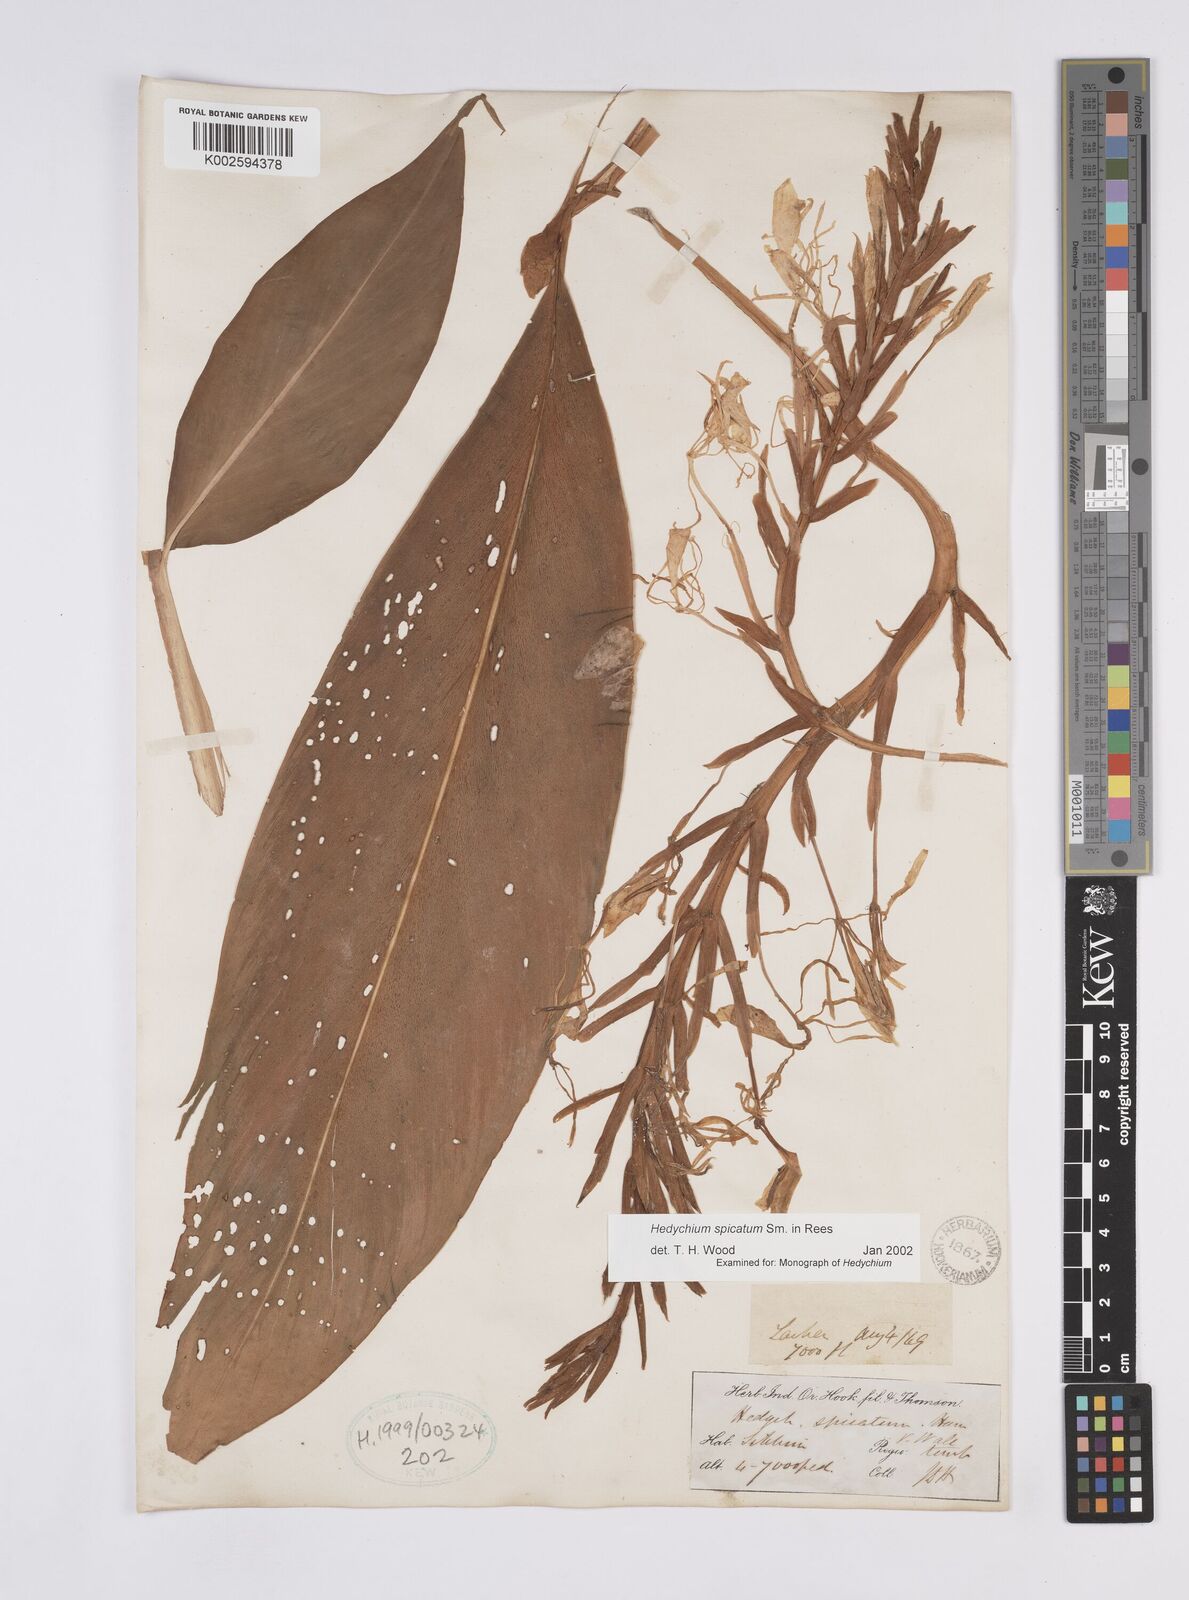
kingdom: Plantae
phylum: Tracheophyta
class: Liliopsida
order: Zingiberales
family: Zingiberaceae
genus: Hedychium
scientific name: Hedychium spicatum
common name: Spiked ginger-lily
